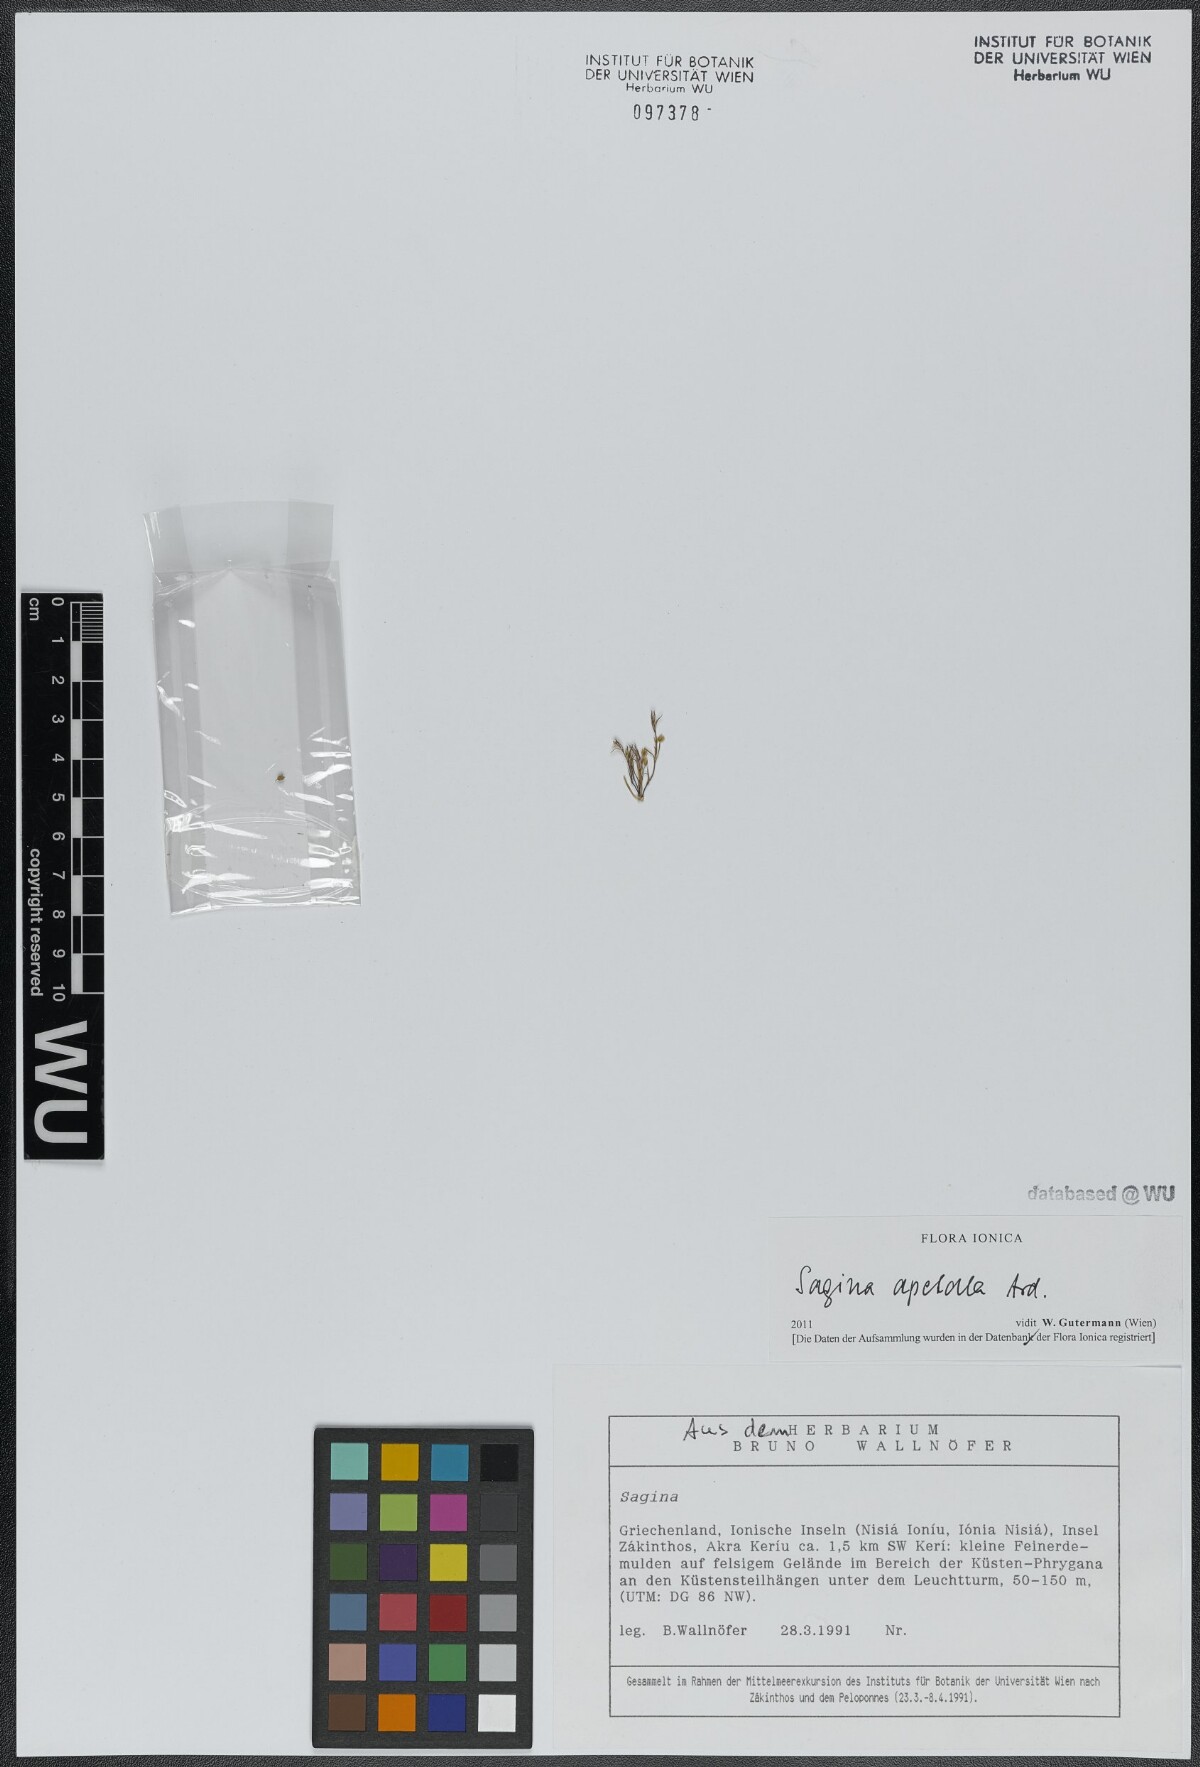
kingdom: Plantae
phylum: Tracheophyta
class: Magnoliopsida
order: Caryophyllales
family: Caryophyllaceae
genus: Sagina
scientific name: Sagina apetala
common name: Annual pearlwort
